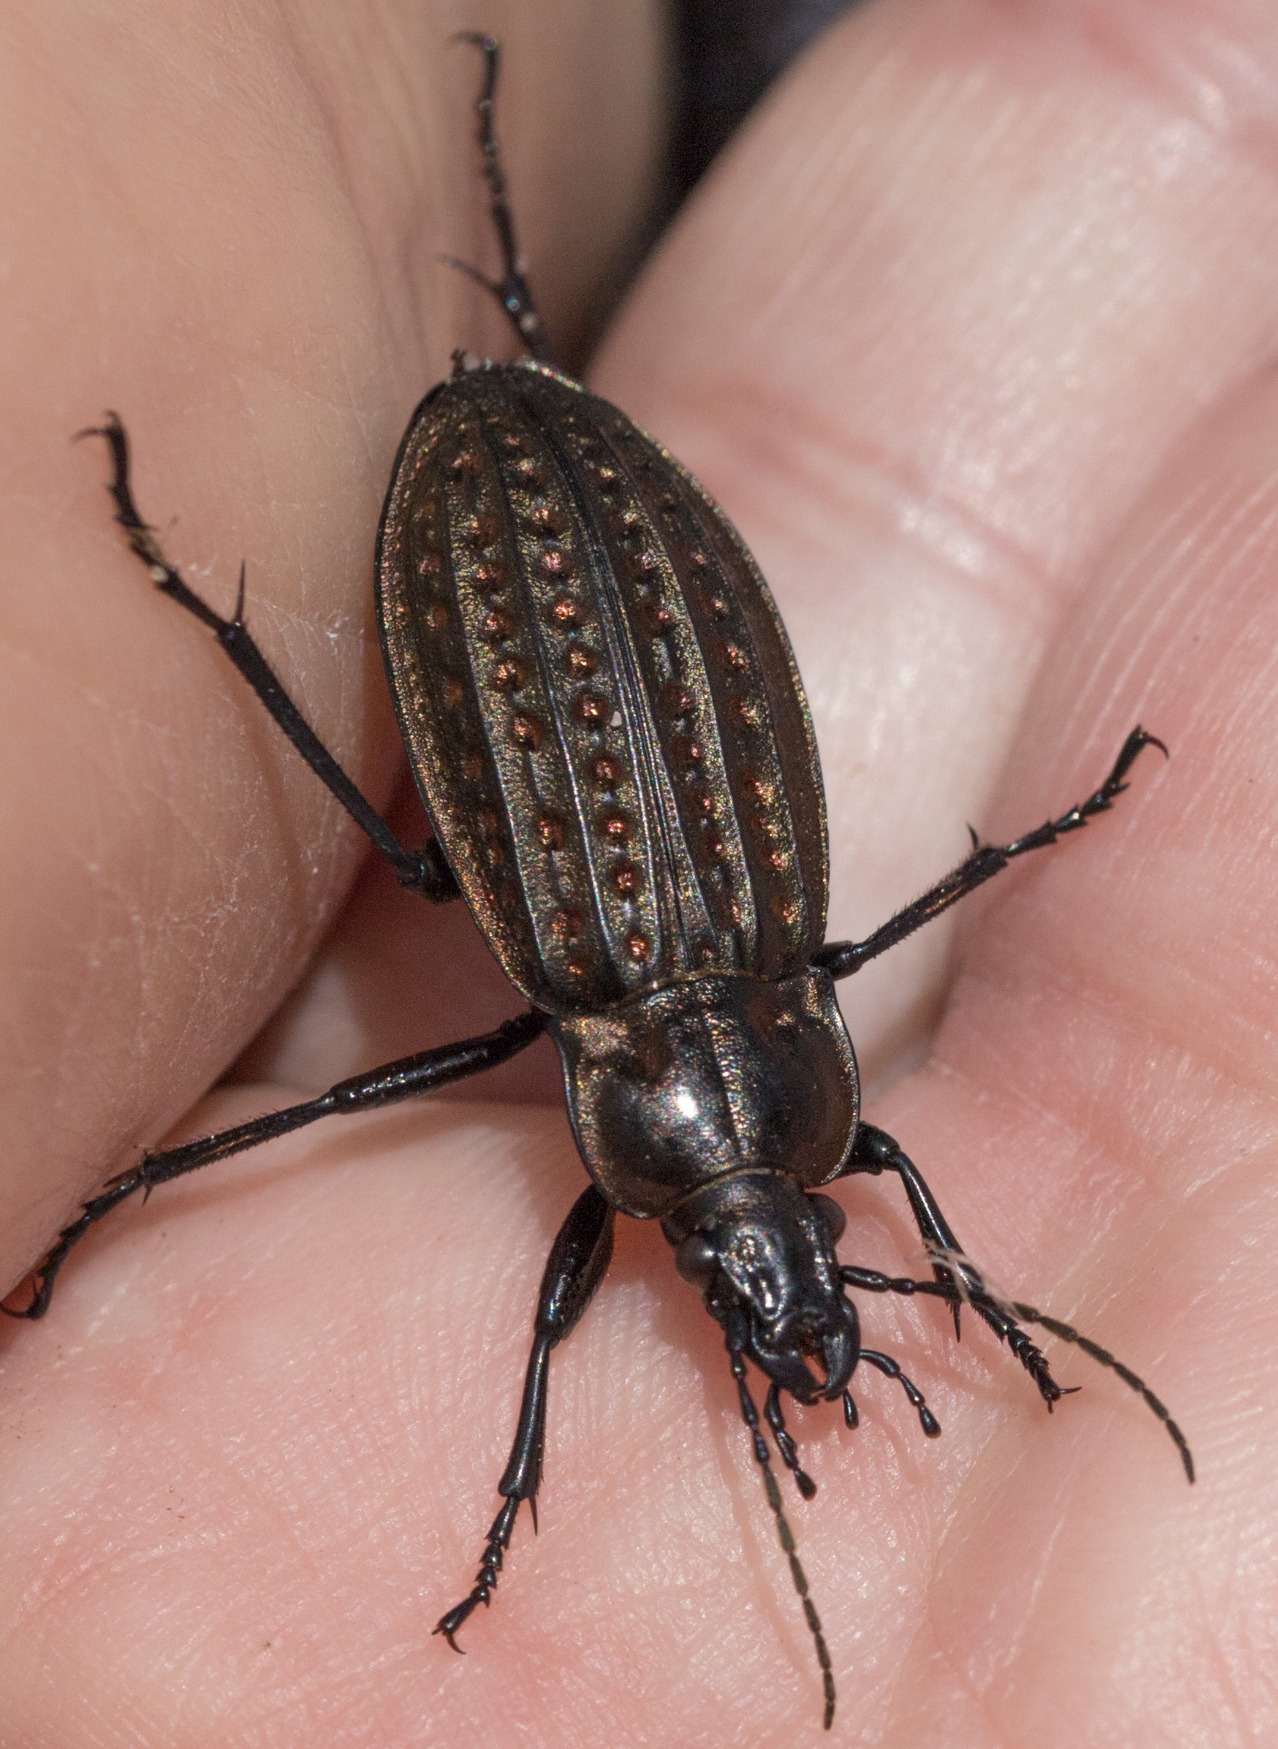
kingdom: Animalia
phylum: Arthropoda
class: Insecta
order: Coleoptera
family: Carabidae
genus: Carabus
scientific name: Carabus clatratus
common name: Dyndløber
